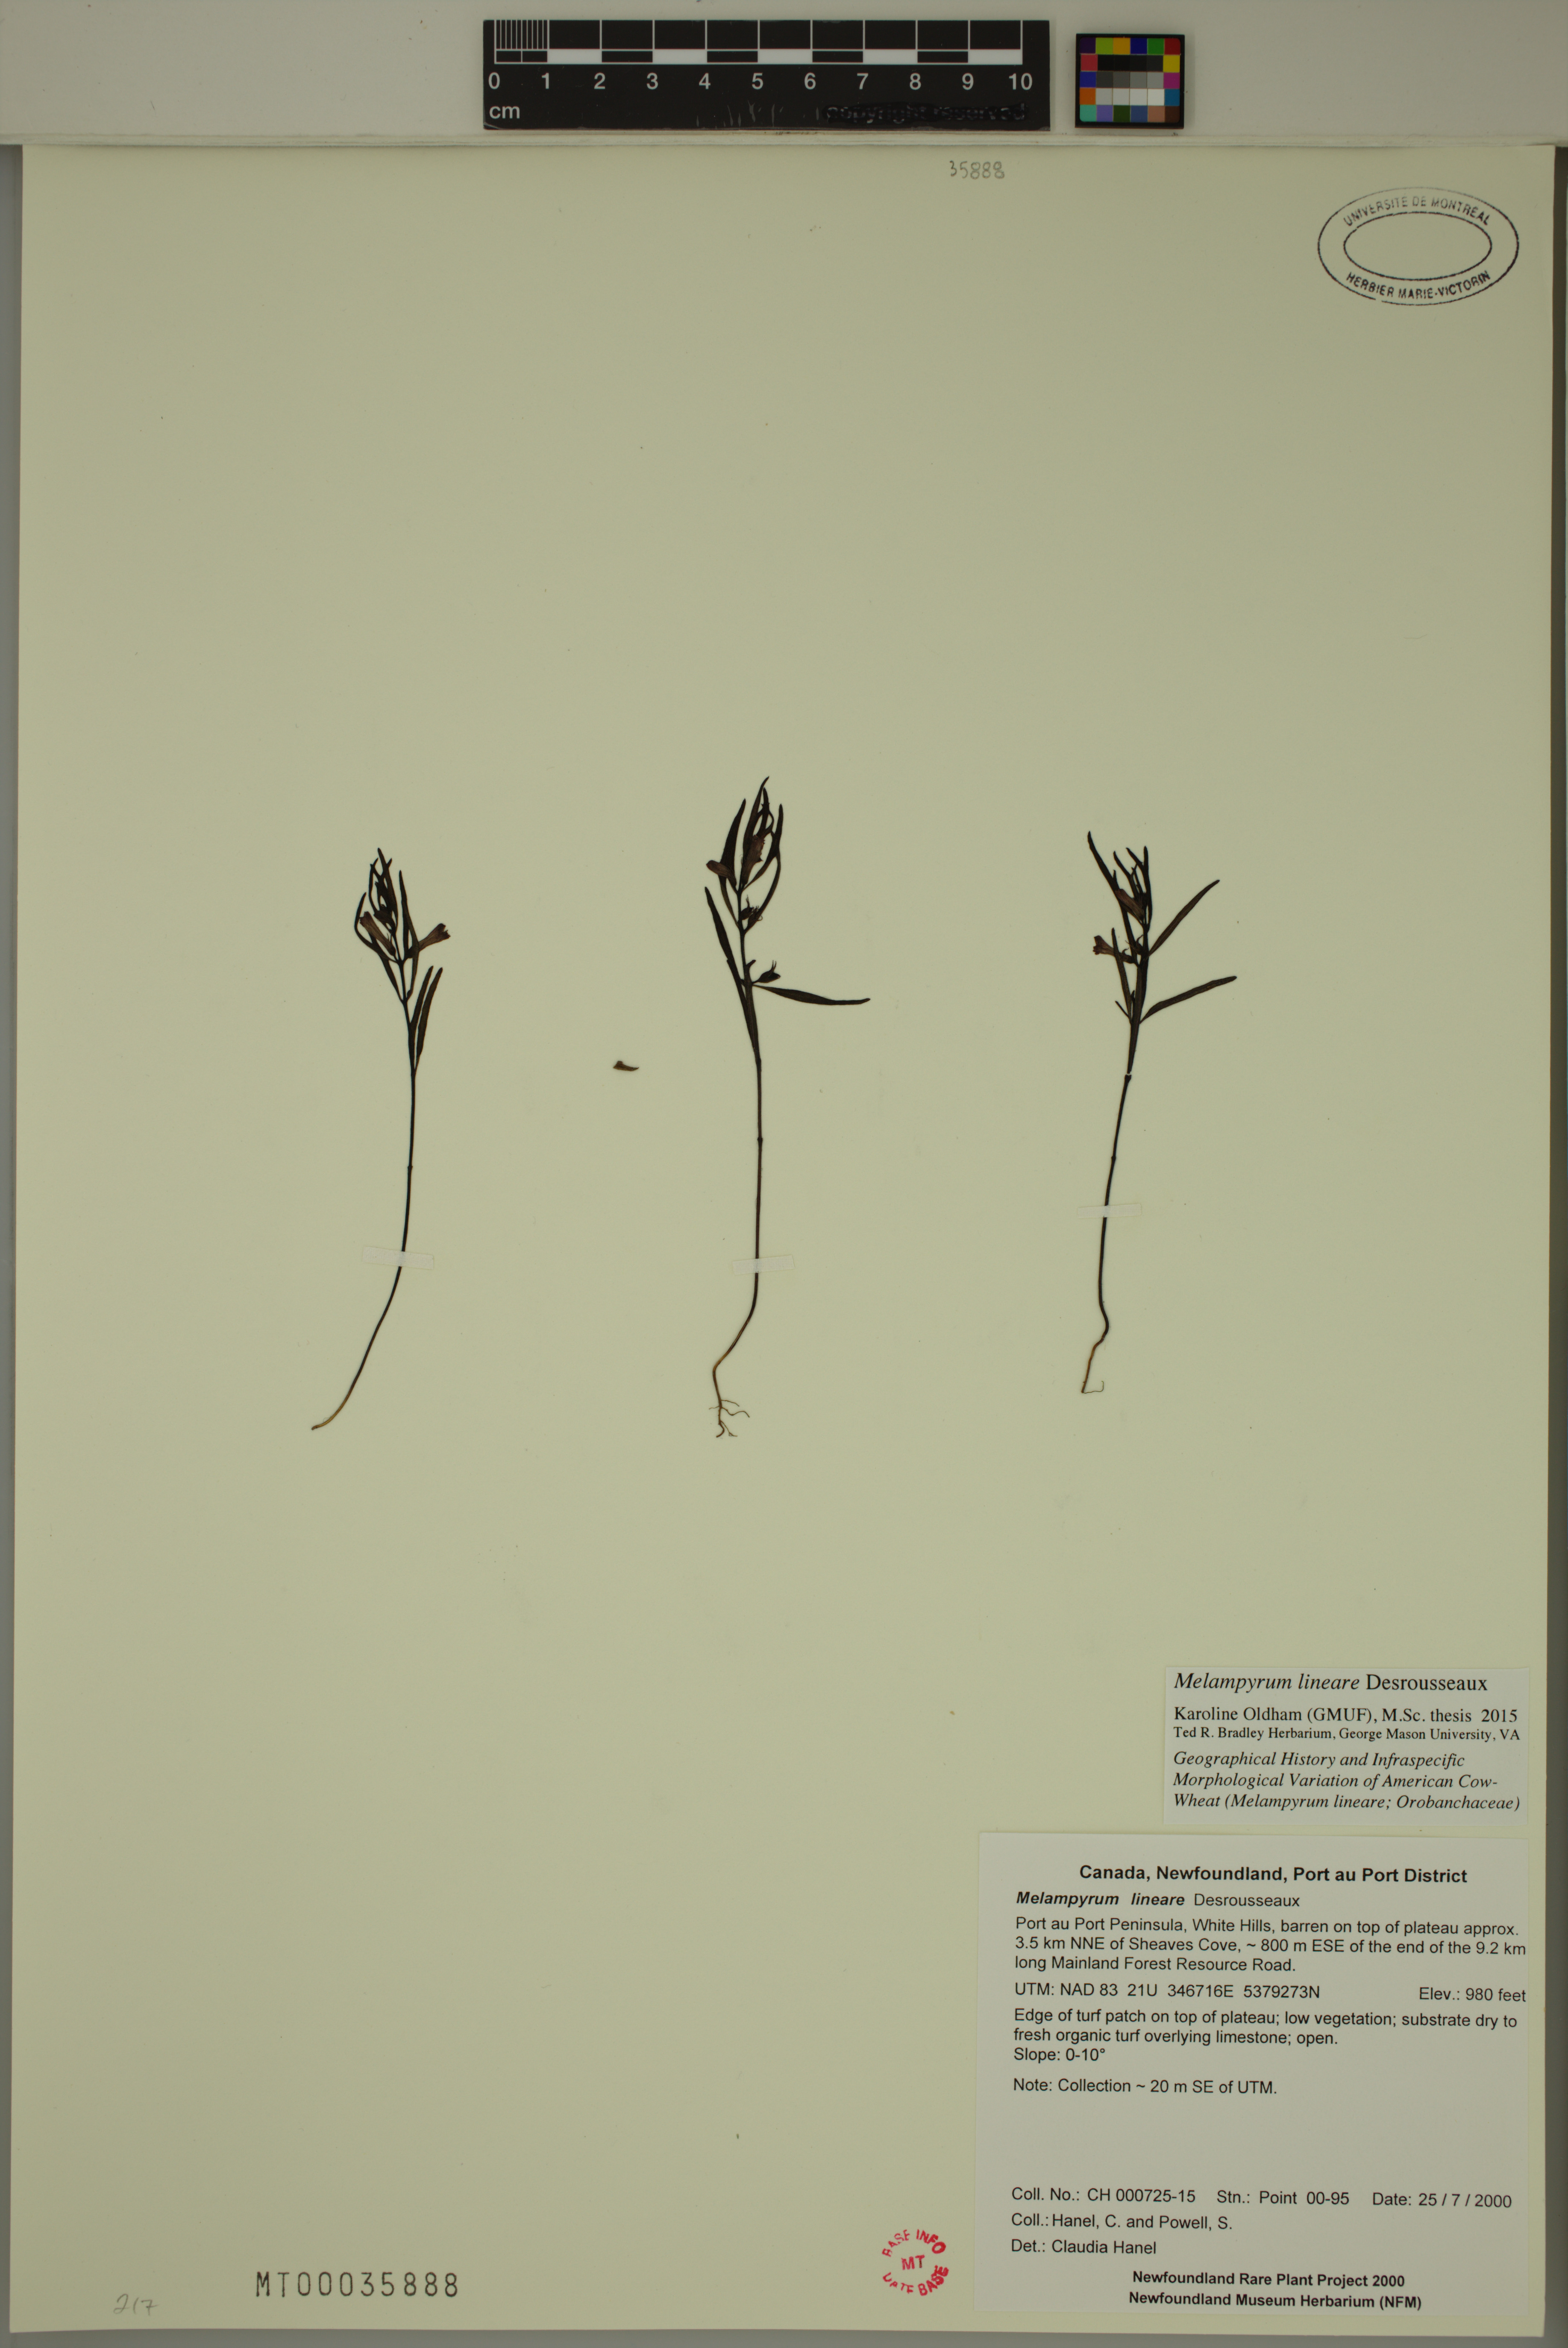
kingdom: Plantae
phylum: Tracheophyta
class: Magnoliopsida
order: Lamiales
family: Orobanchaceae
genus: Melampyrum
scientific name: Melampyrum lineare
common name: American cow-wheat
